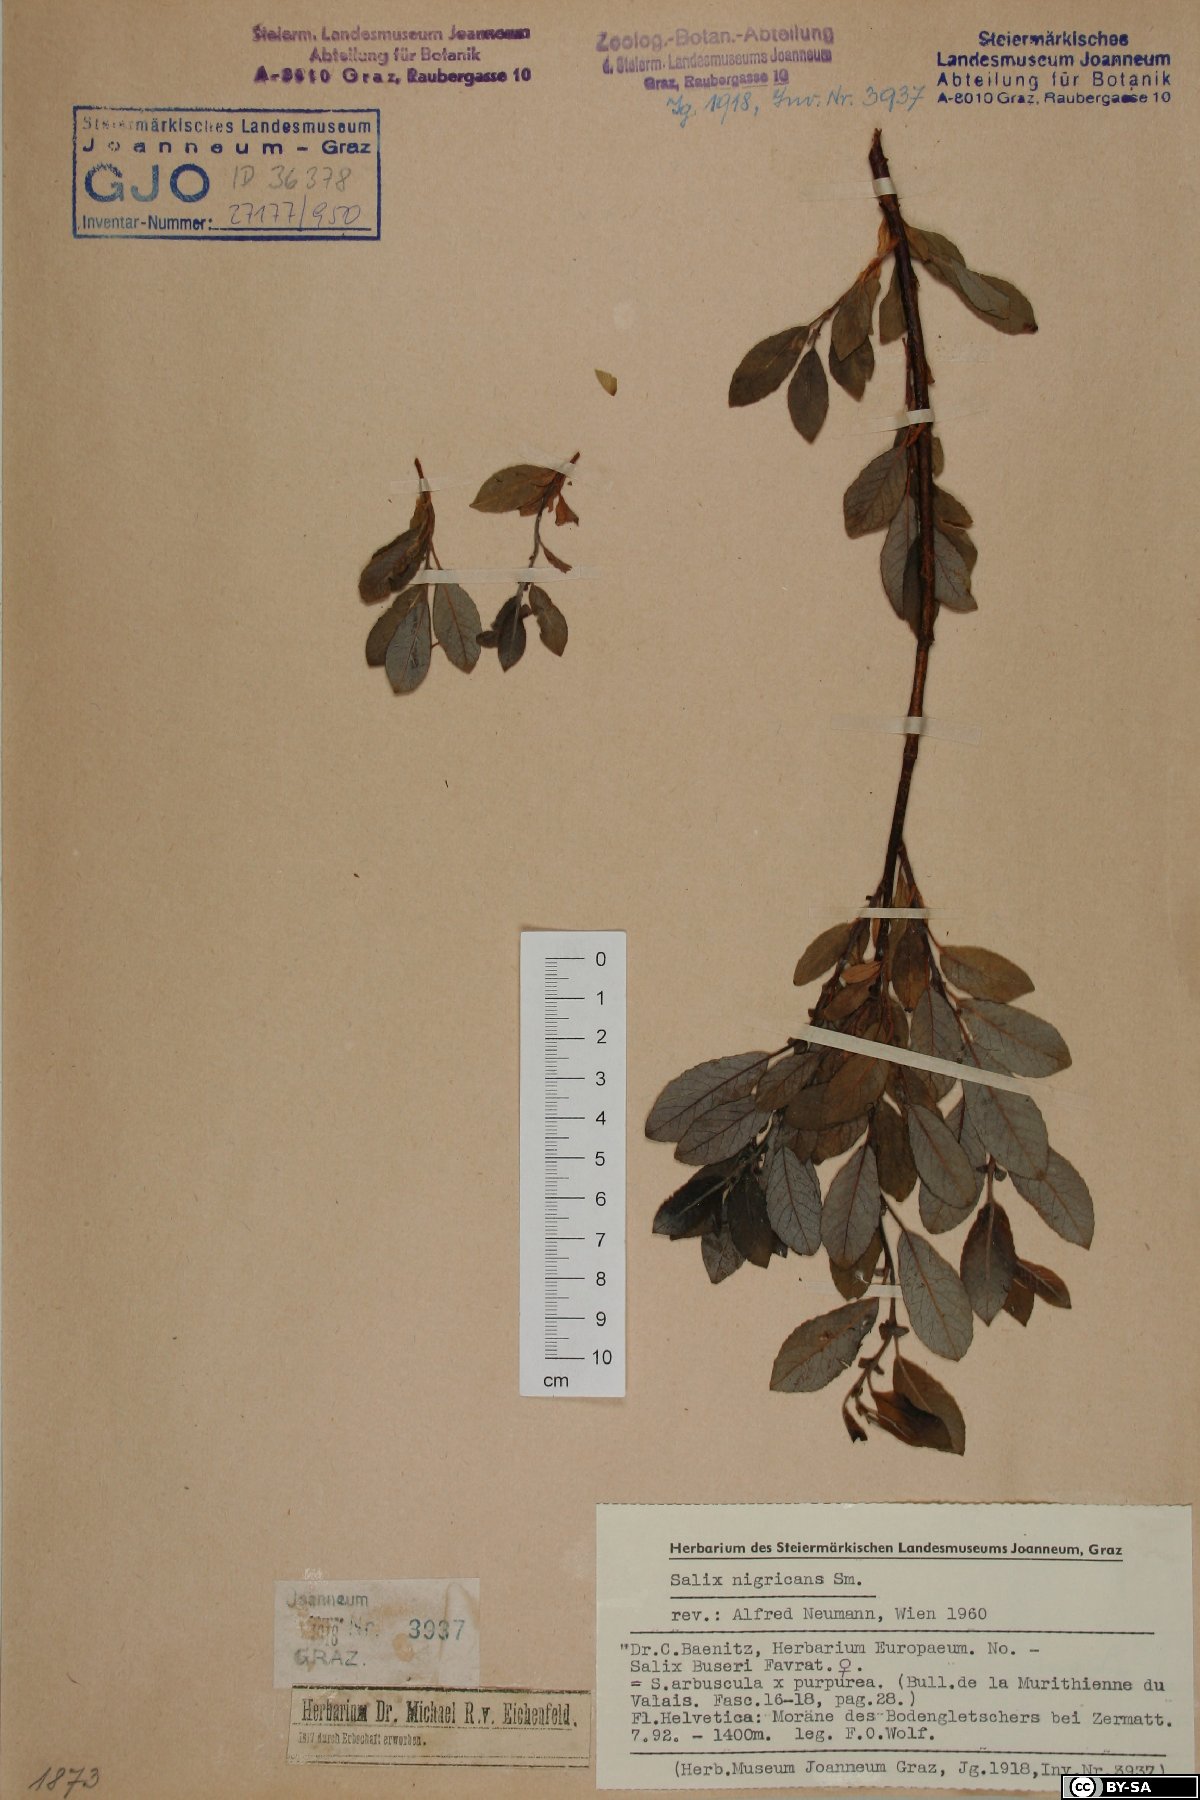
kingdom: Plantae
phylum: Tracheophyta
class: Magnoliopsida
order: Malpighiales
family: Salicaceae
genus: Salix
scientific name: Salix myrsinifolia
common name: Dark-leaved willow
